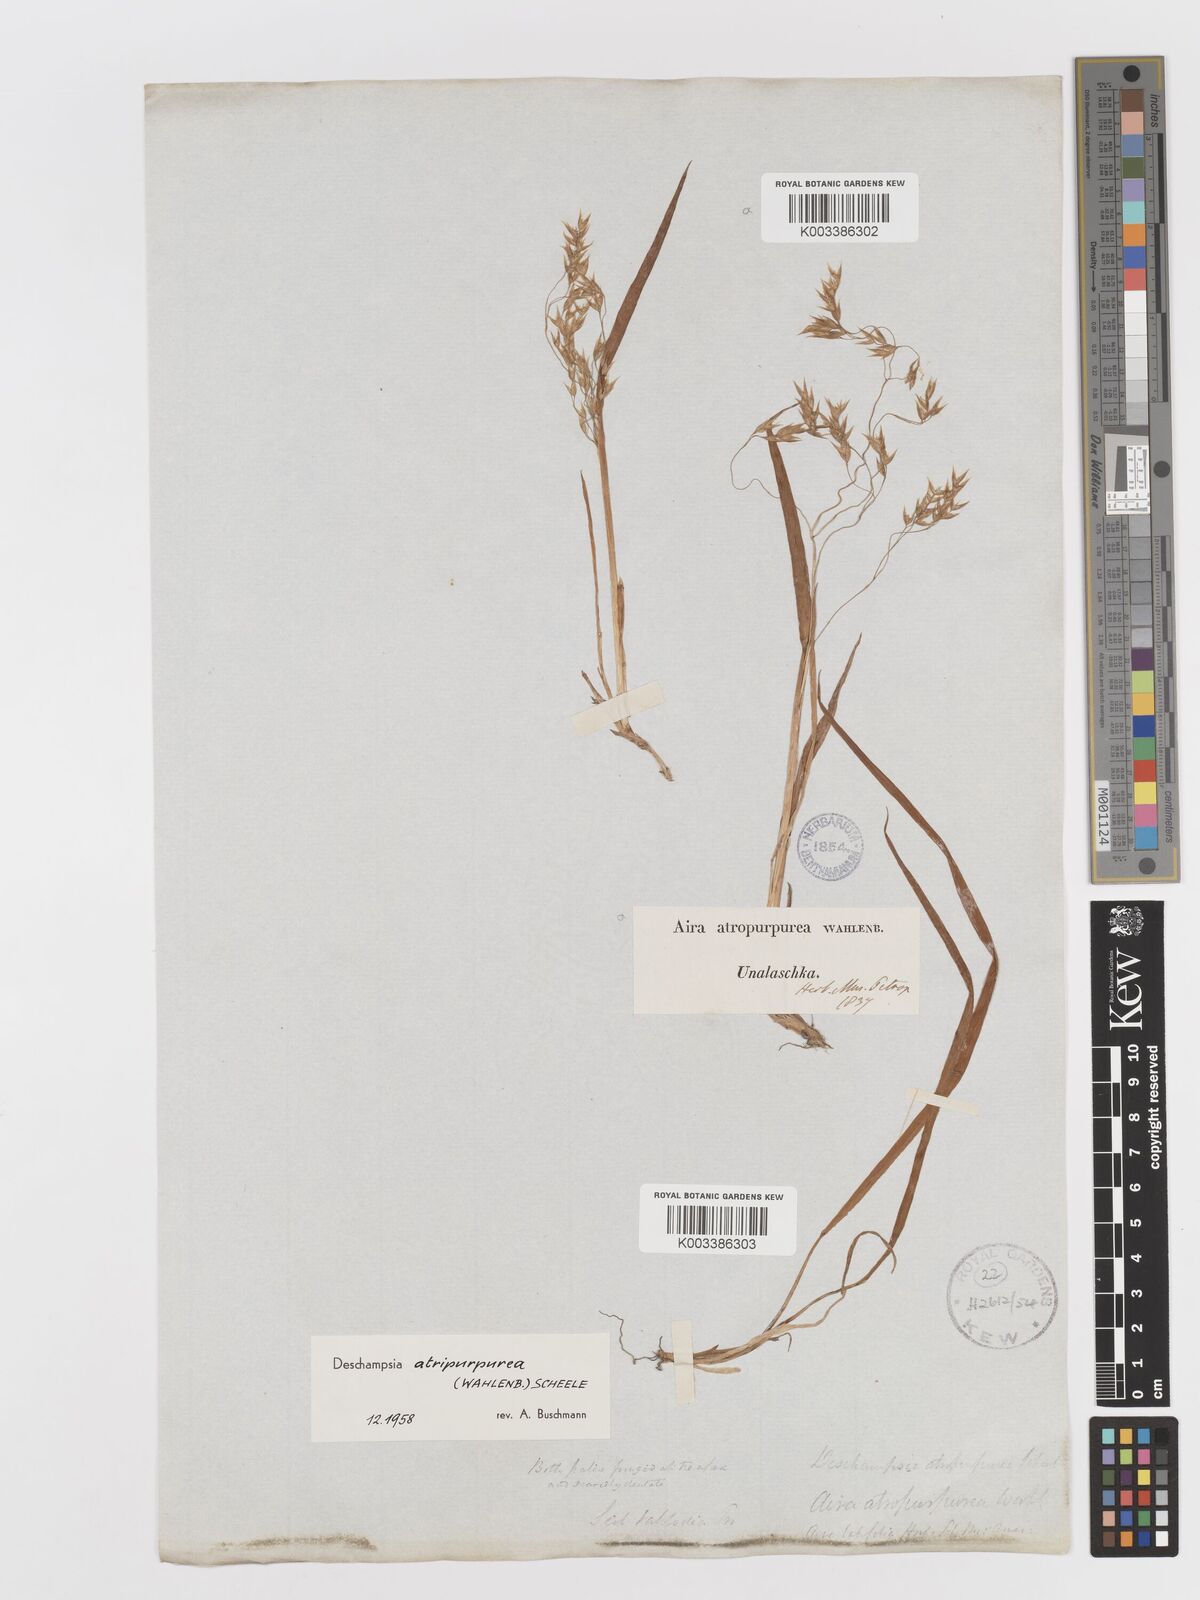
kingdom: Plantae
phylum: Tracheophyta
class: Liliopsida
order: Poales
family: Poaceae
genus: Vahlodea
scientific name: Vahlodea atropurpurea
